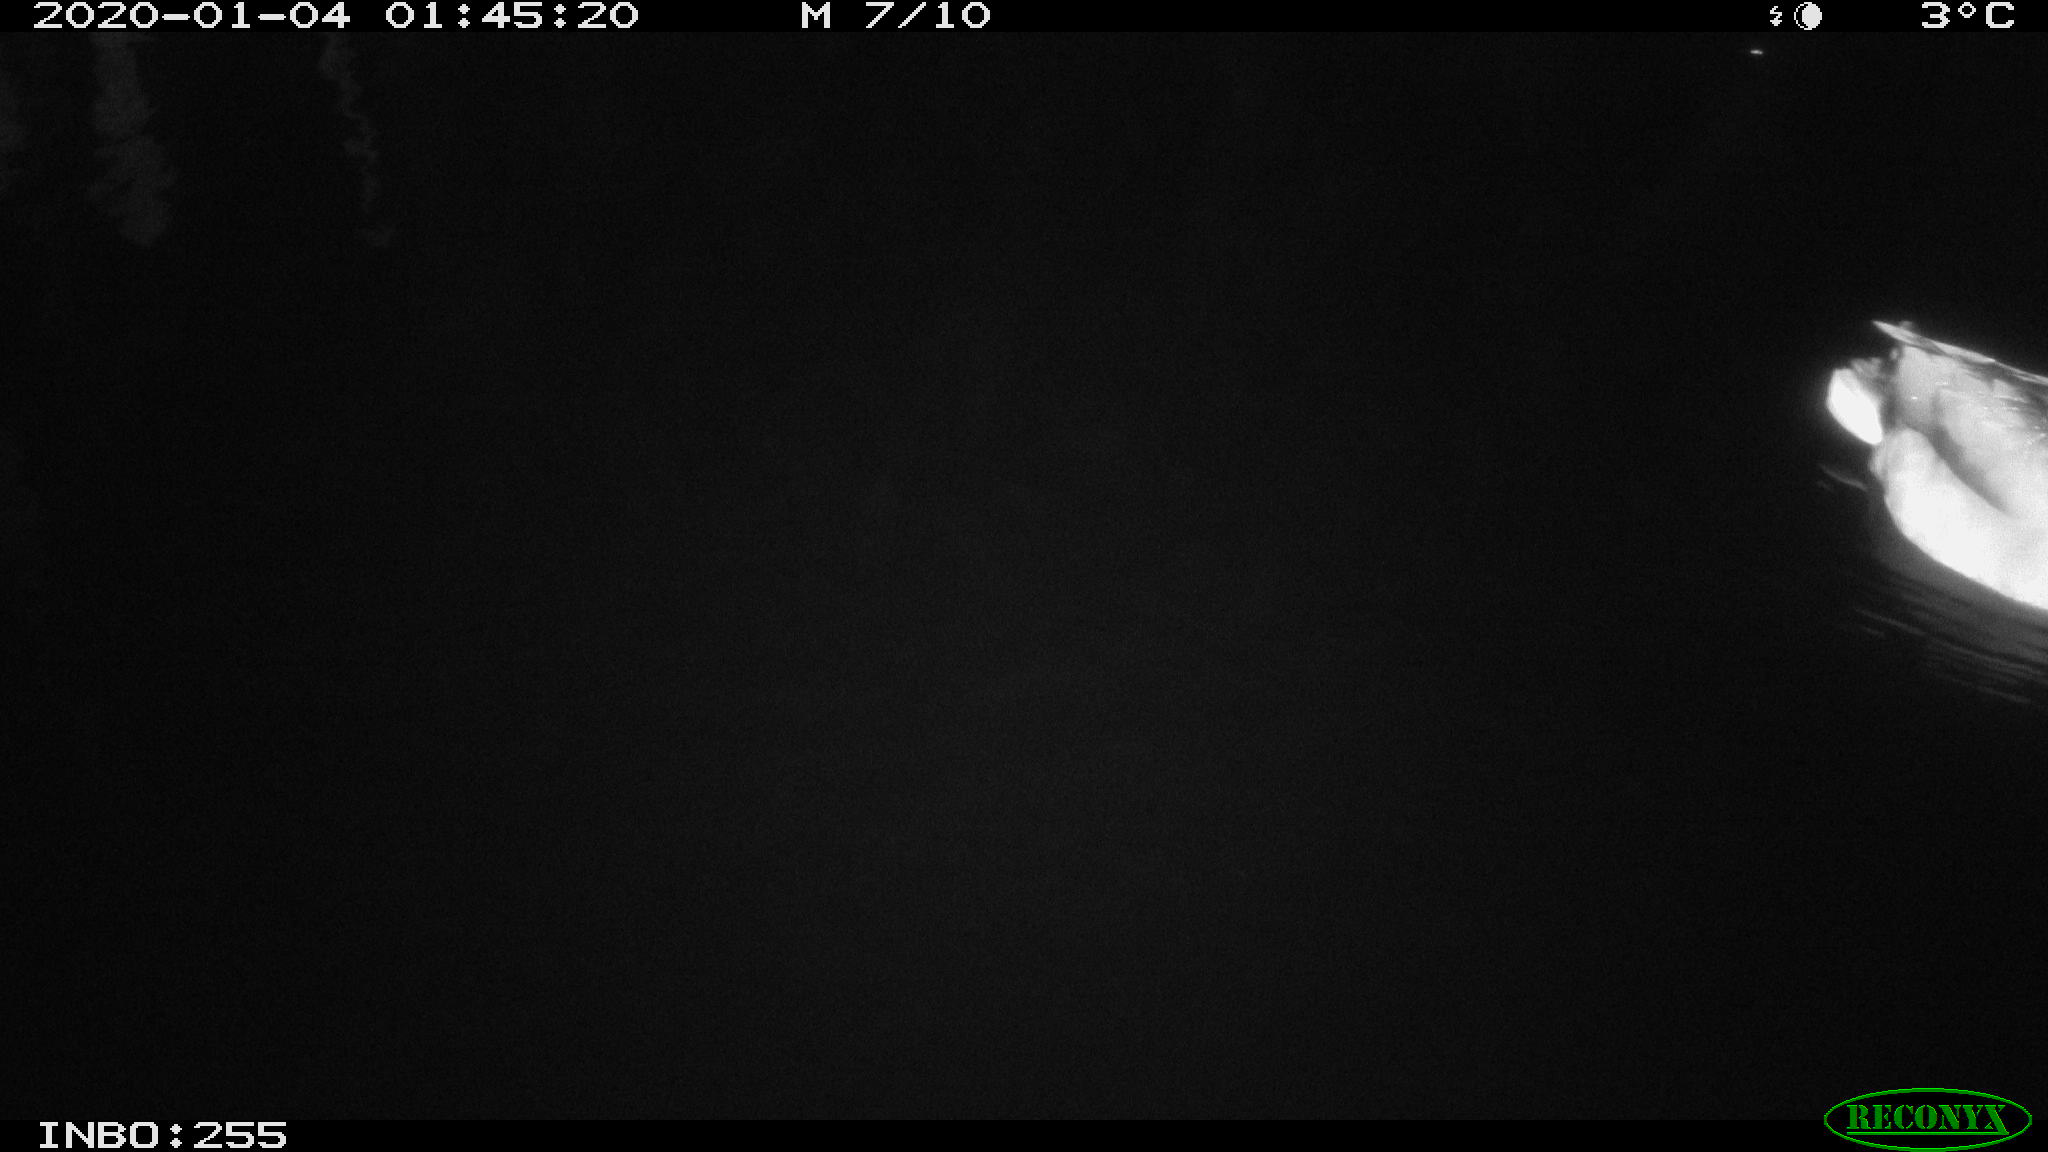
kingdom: Animalia
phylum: Chordata
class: Aves
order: Anseriformes
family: Anatidae
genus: Anas
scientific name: Anas platyrhynchos
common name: Mallard
